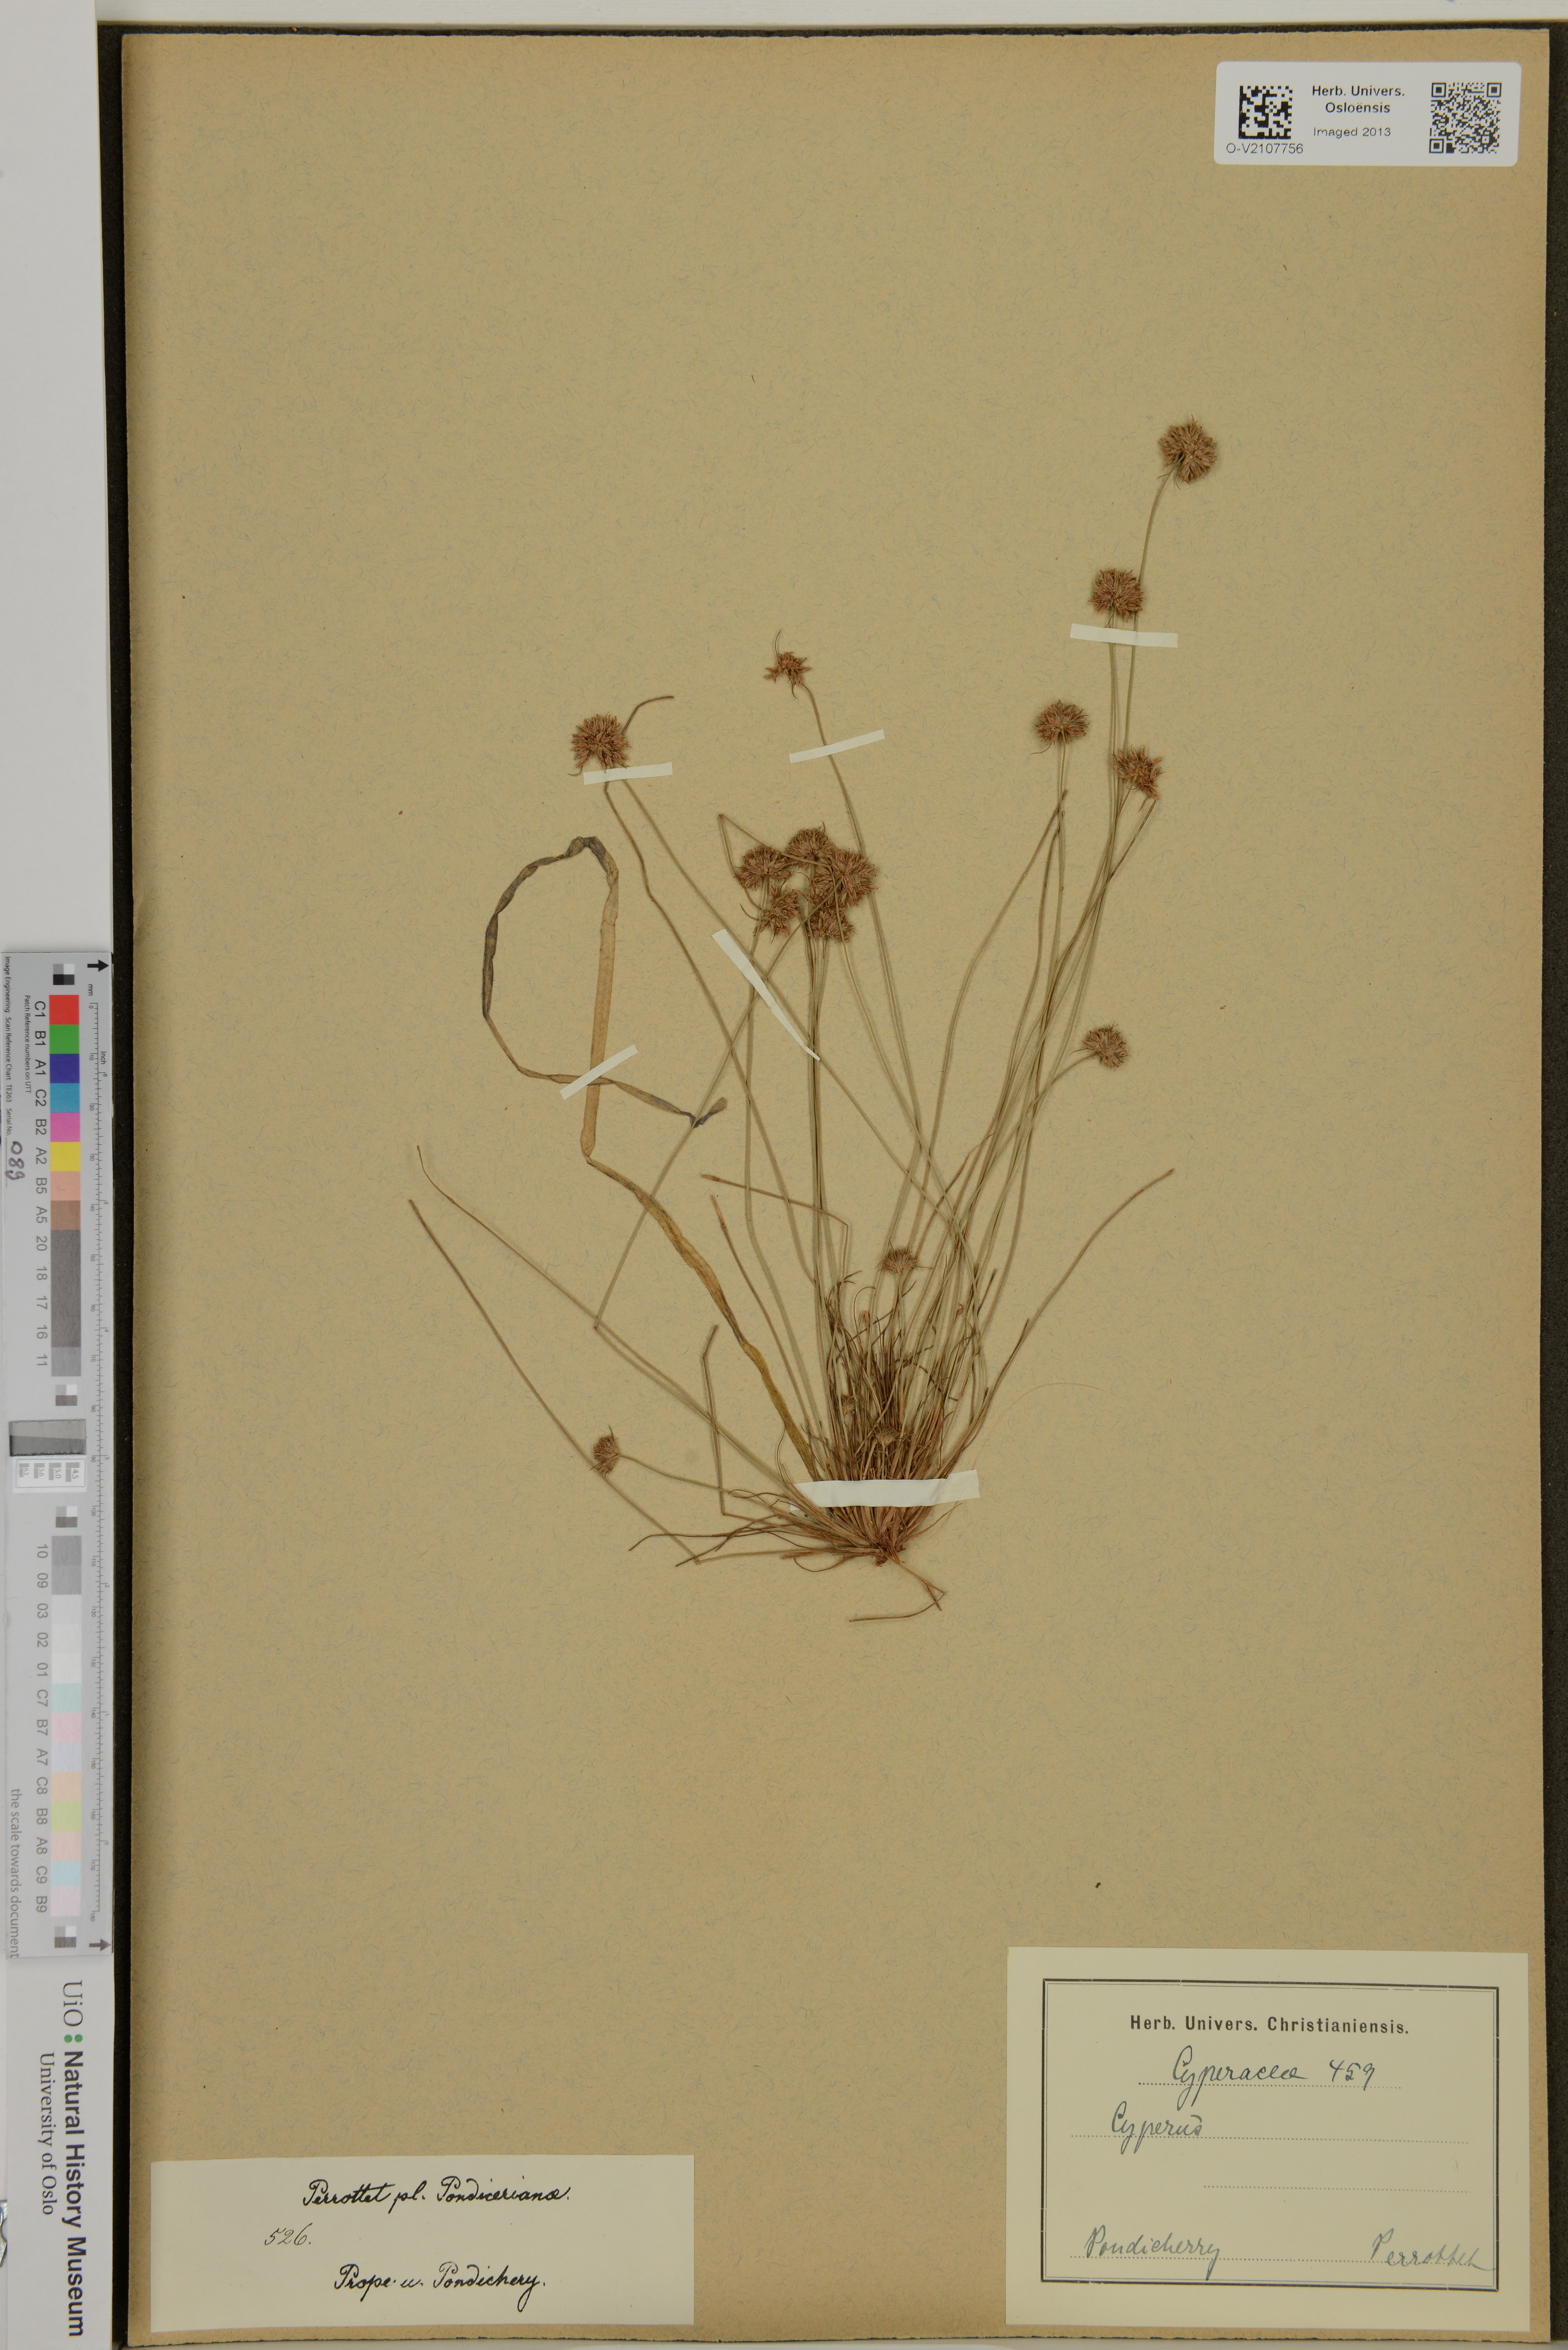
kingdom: Plantae
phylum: Tracheophyta
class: Liliopsida
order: Poales
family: Cyperaceae
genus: Cyperus
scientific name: Cyperus
